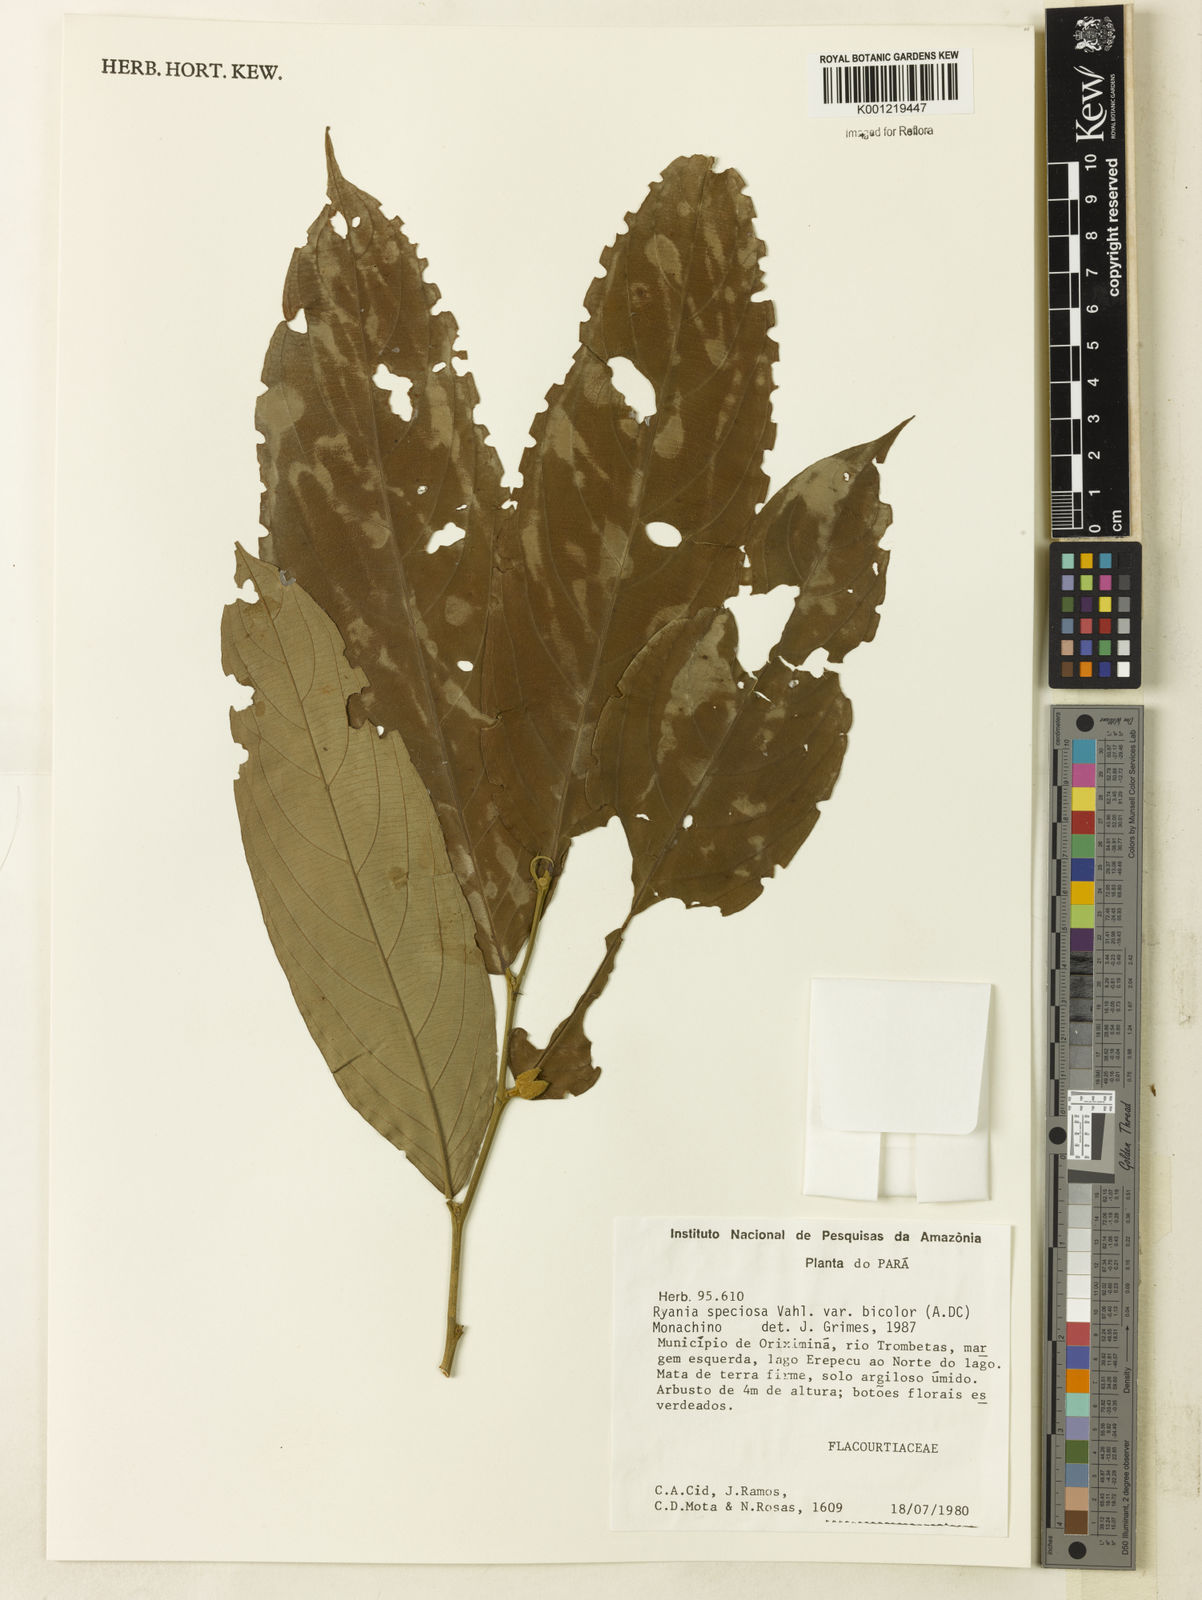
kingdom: Plantae
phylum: Tracheophyta
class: Magnoliopsida
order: Malpighiales
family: Salicaceae
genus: Ryania
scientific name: Ryania speciosa
